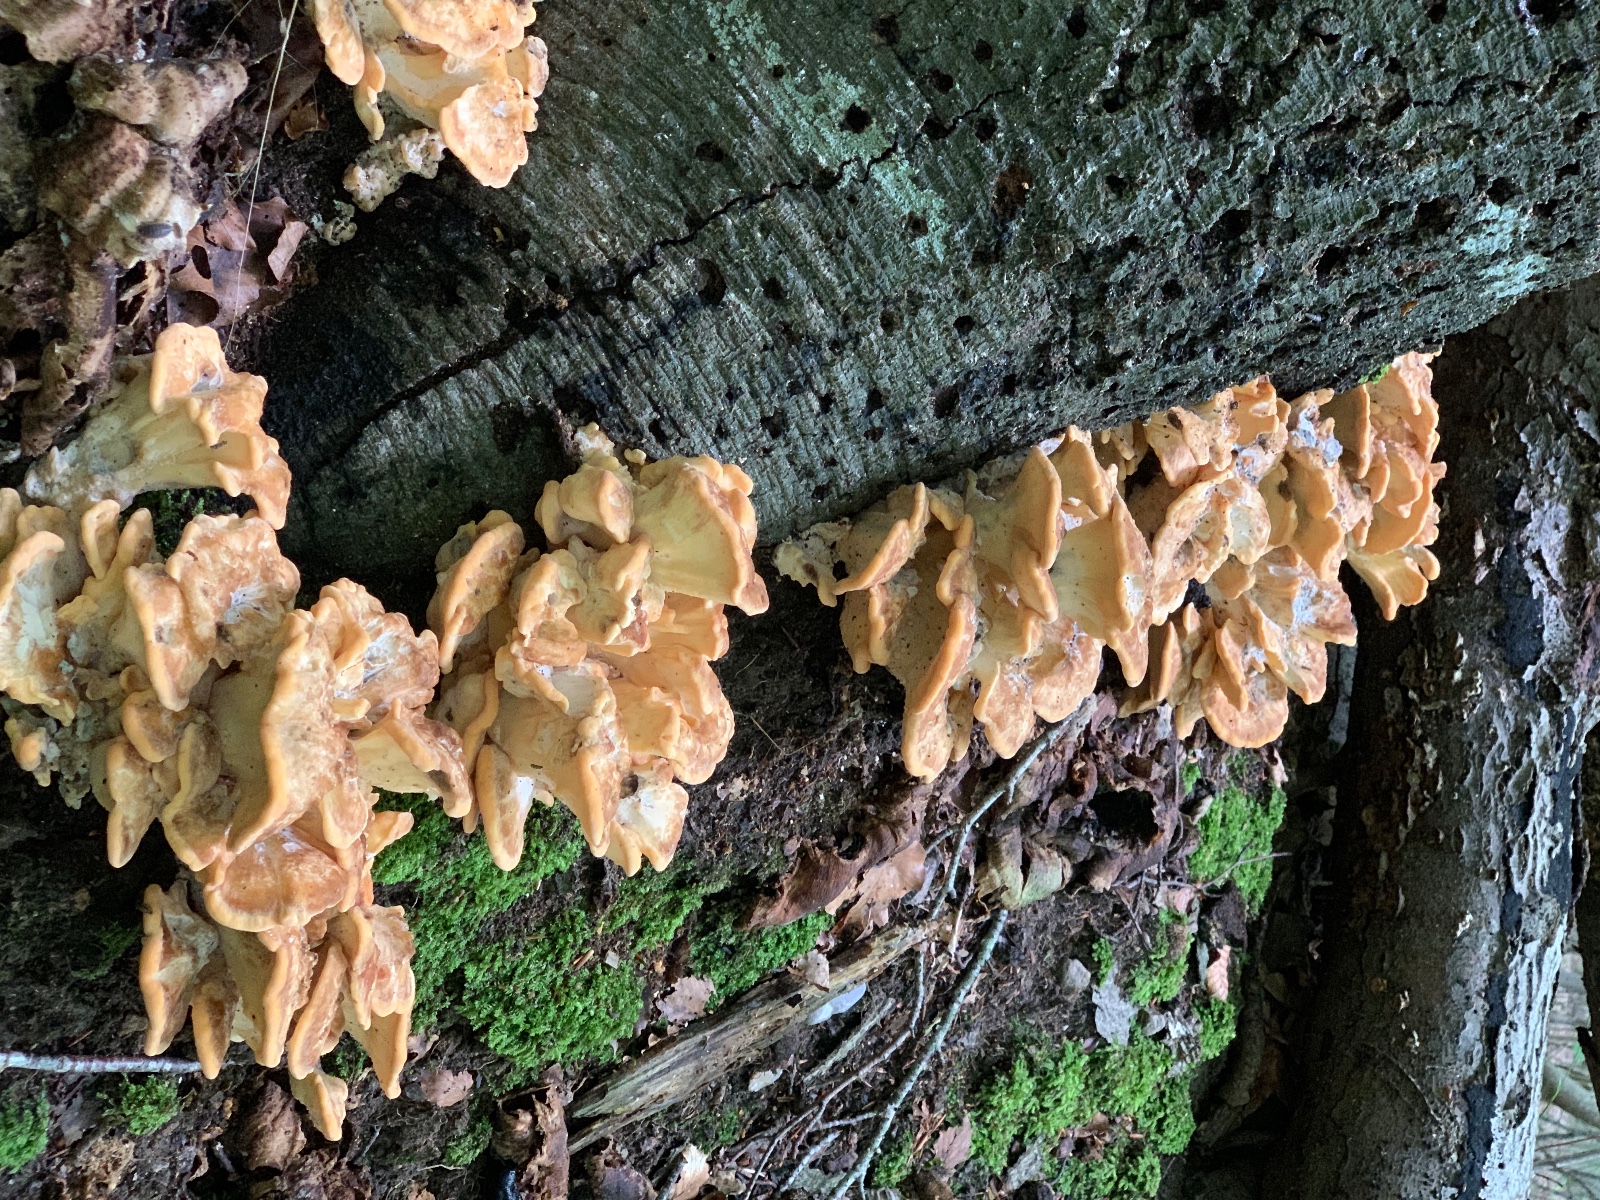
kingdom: Fungi
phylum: Basidiomycota
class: Agaricomycetes
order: Polyporales
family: Meripilaceae
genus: Meripilus
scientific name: Meripilus giganteus
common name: kæmpeporesvamp
